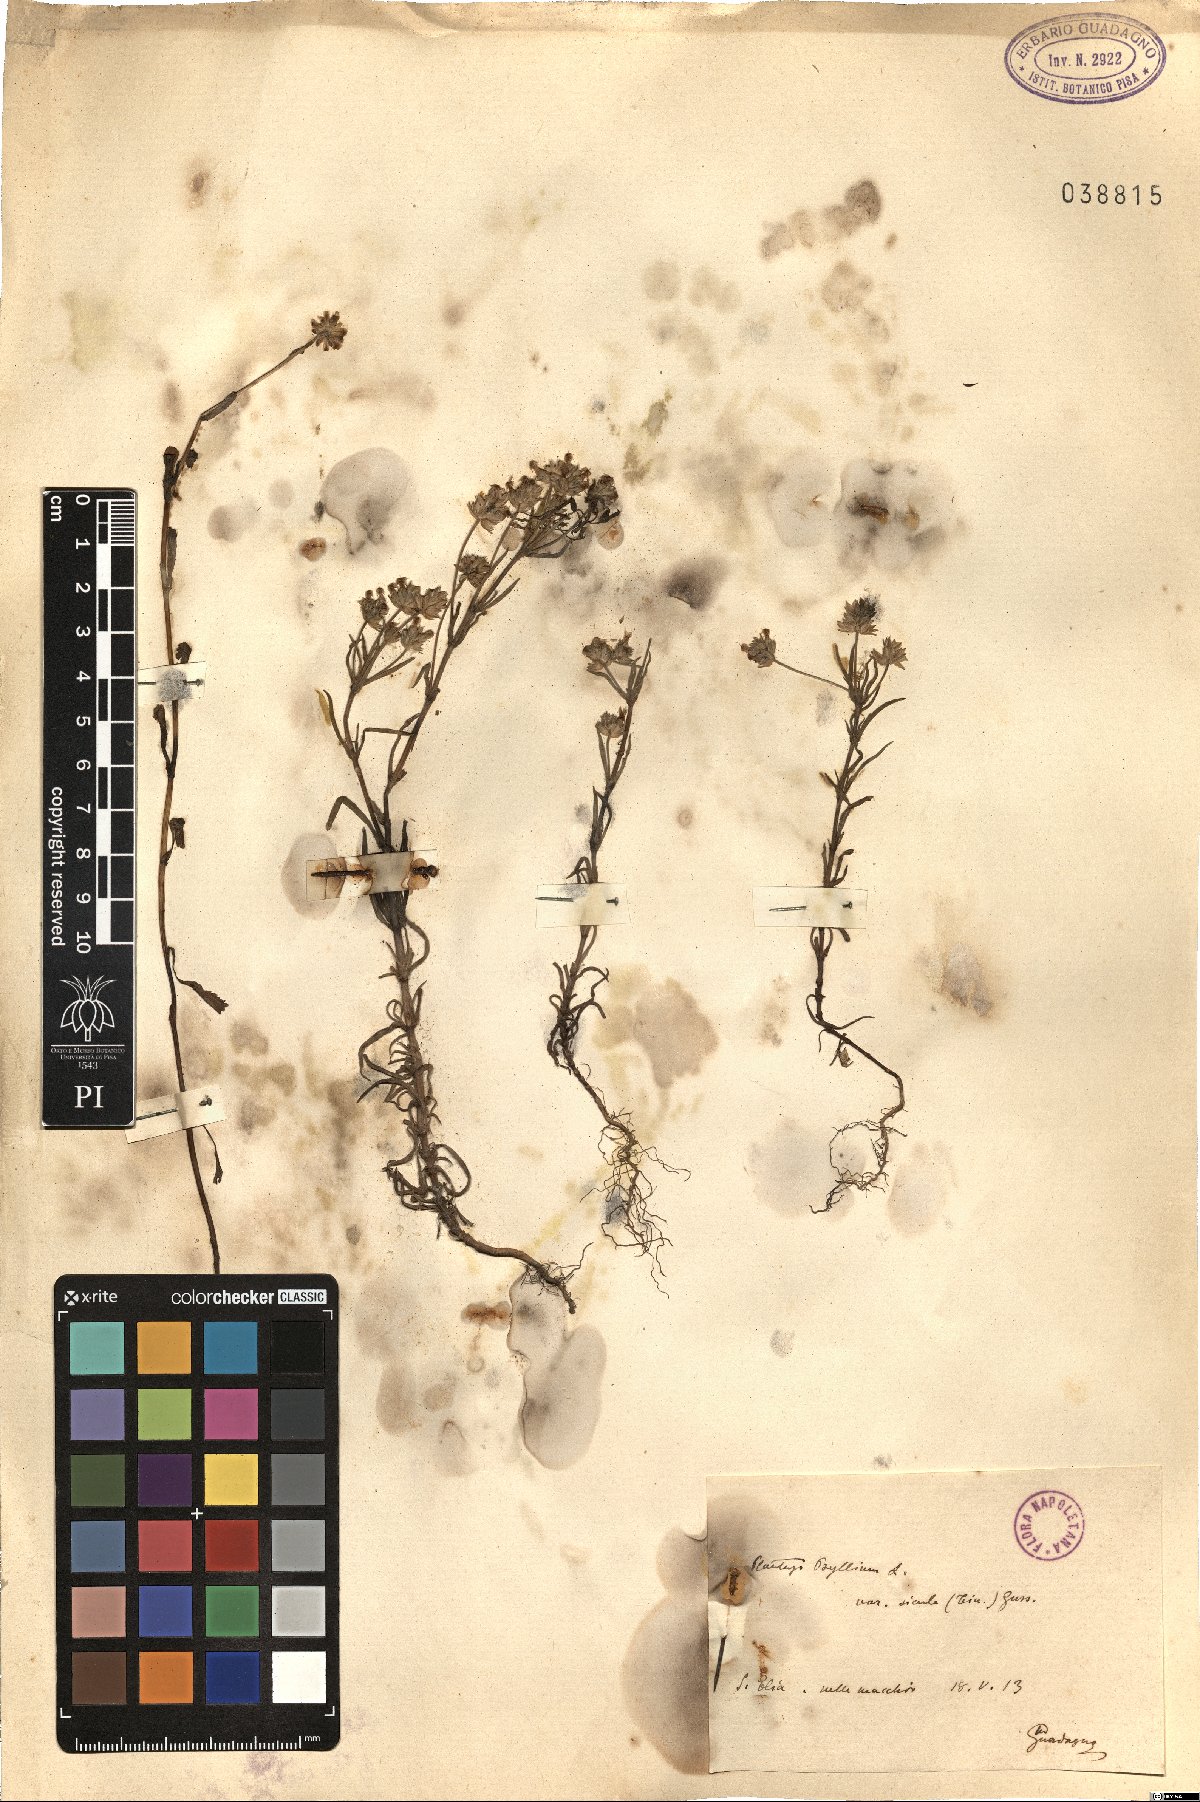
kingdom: Plantae
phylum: Tracheophyta
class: Magnoliopsida
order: Lamiales
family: Plantaginaceae
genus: Plantago
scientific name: Plantago afra
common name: Glandular plantain
